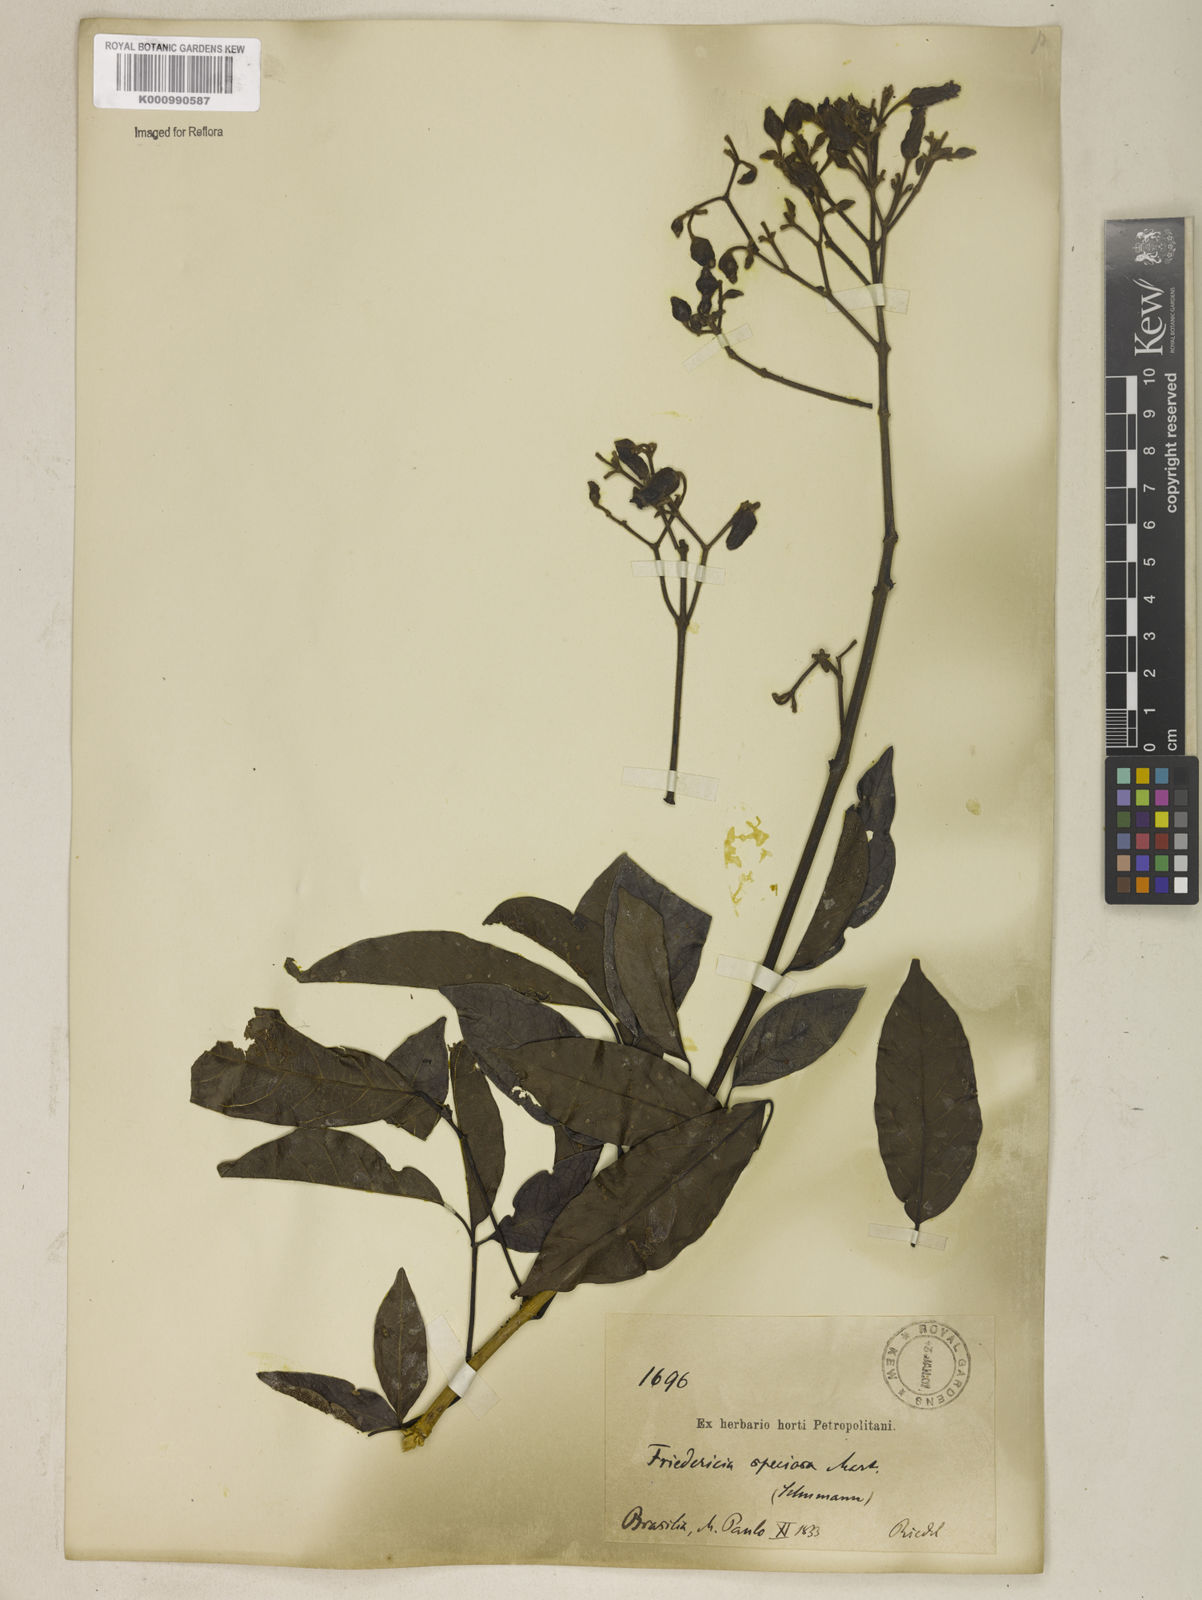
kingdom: Plantae
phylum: Tracheophyta
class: Magnoliopsida
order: Lamiales
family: Bignoniaceae
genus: Fridericia
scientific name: Fridericia speciosa
